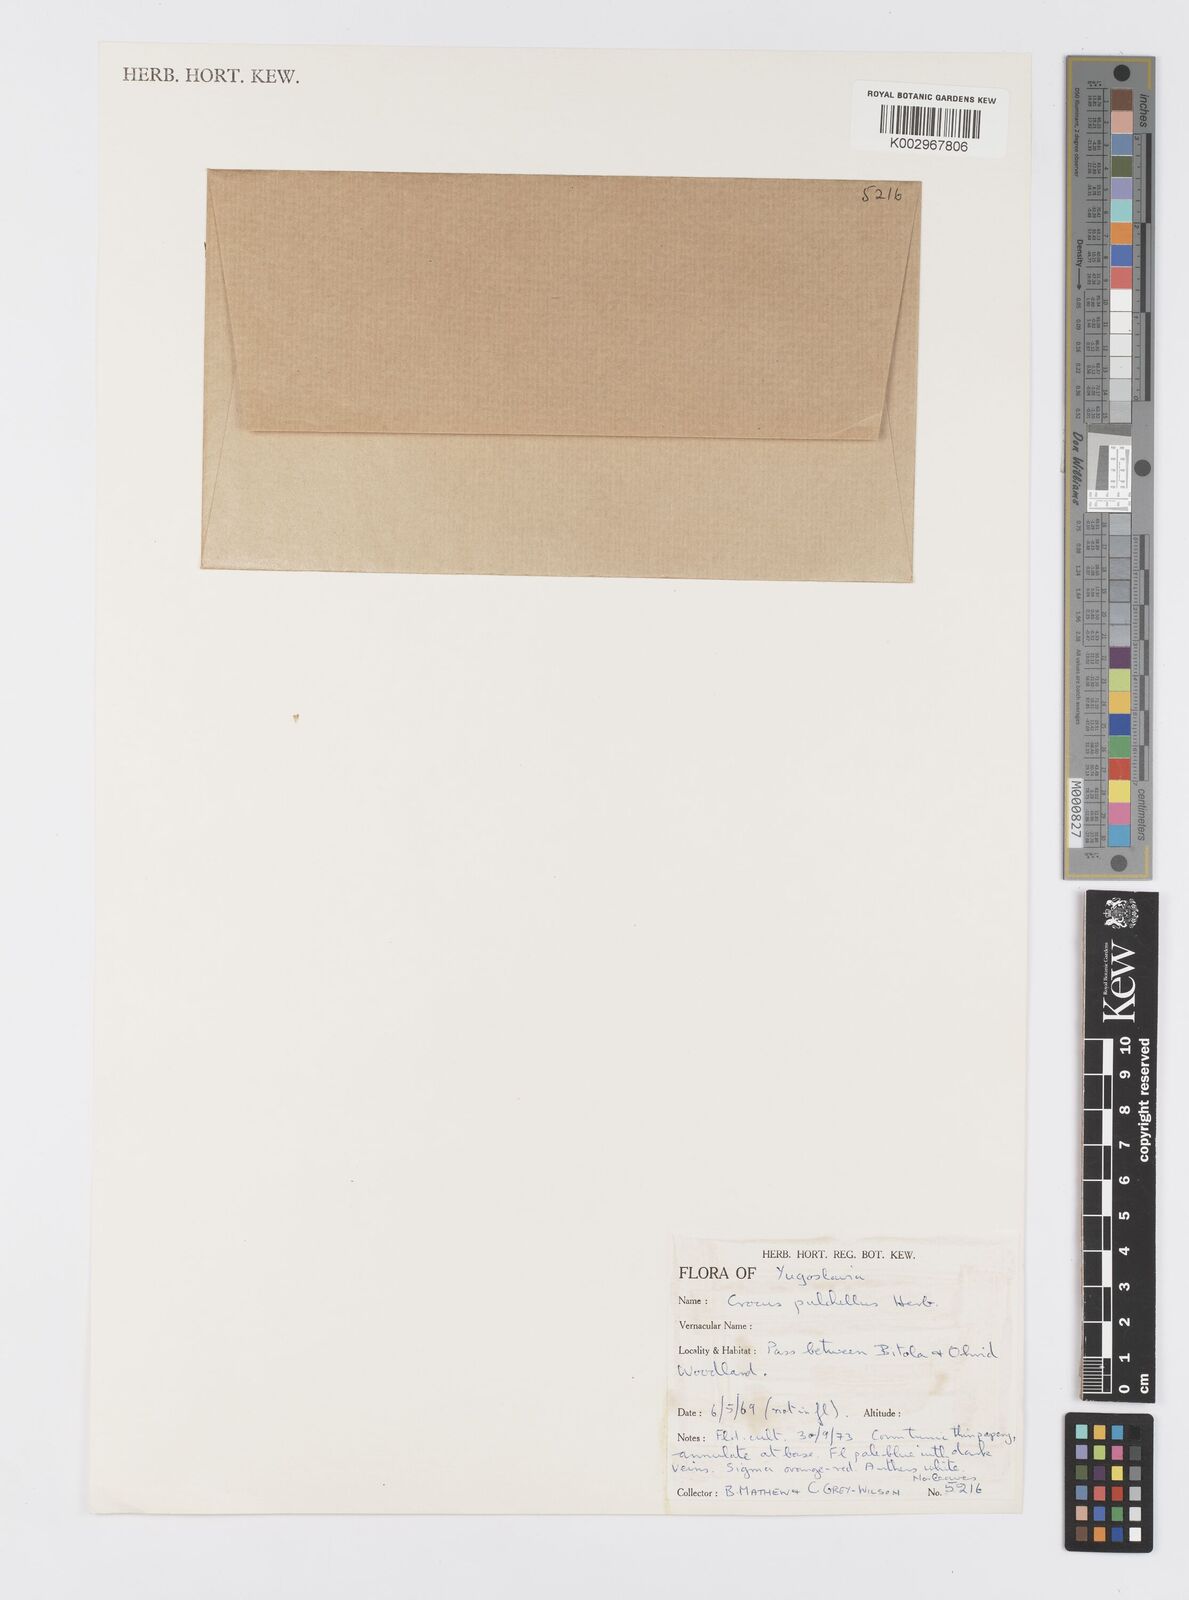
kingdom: Plantae
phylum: Tracheophyta
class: Liliopsida
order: Asparagales
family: Iridaceae
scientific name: Iridaceae
